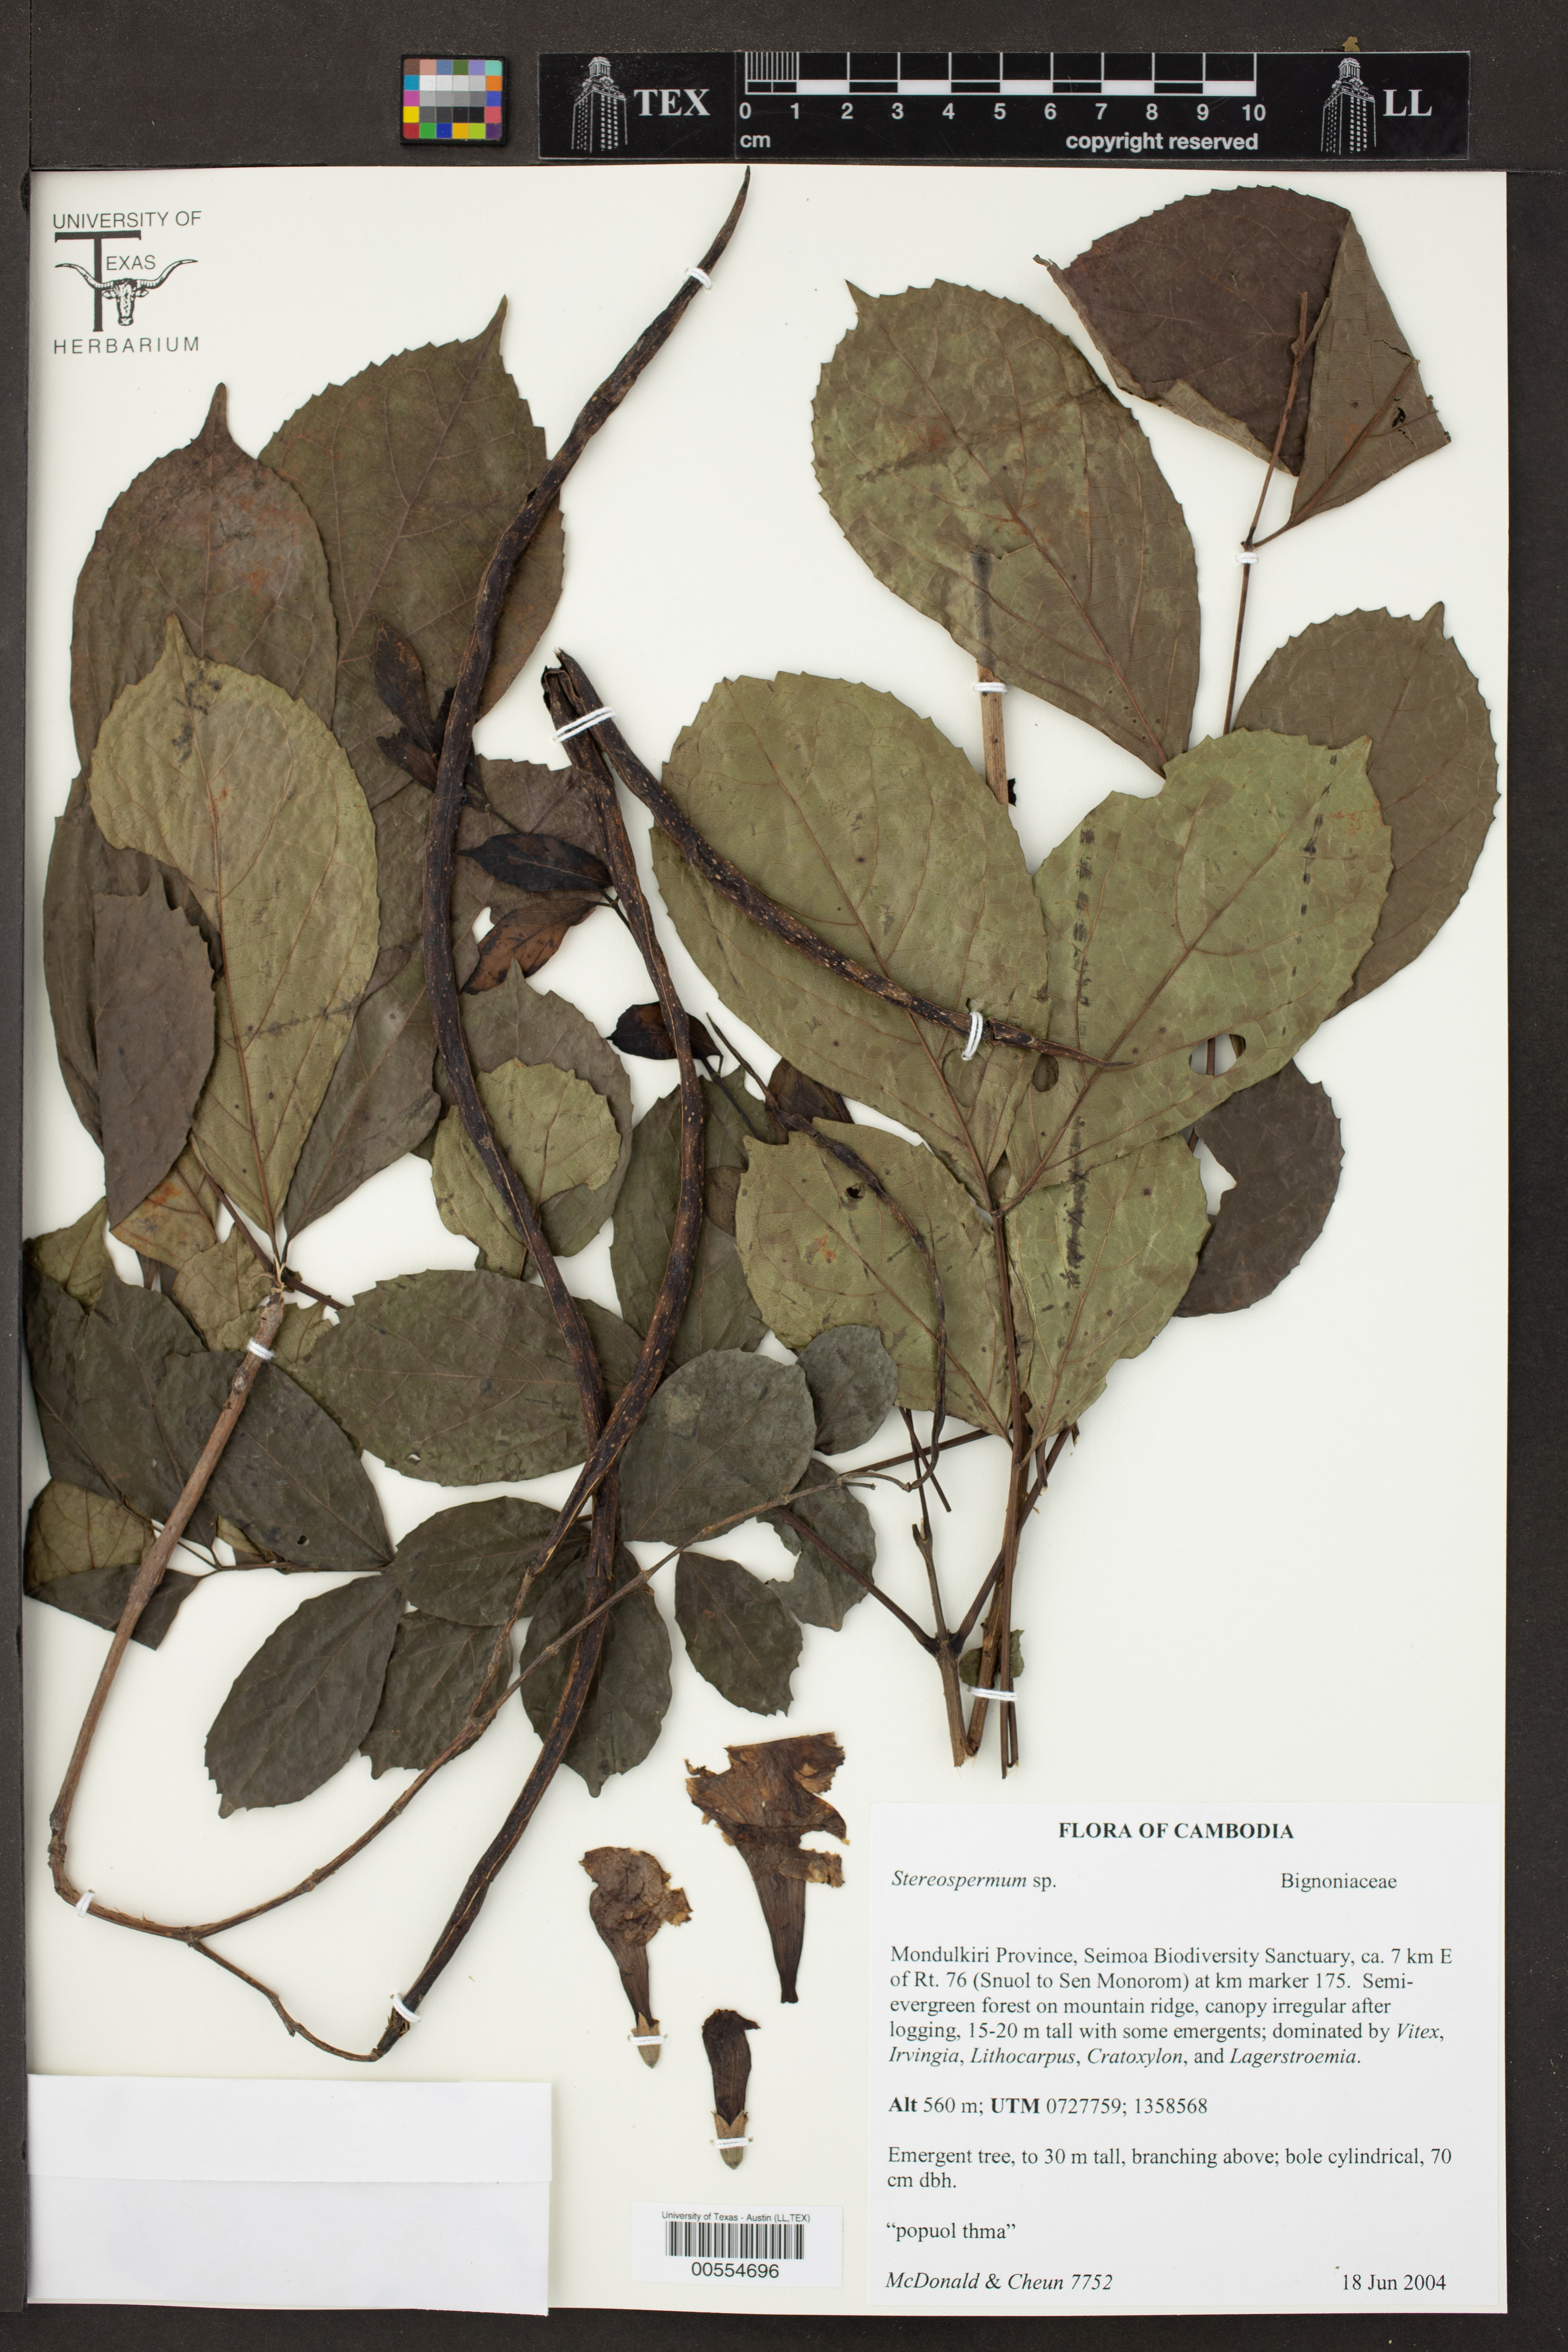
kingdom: Plantae
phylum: Tracheophyta
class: Magnoliopsida
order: Lamiales
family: Bignoniaceae
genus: Stereospermum
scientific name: Stereospermum
